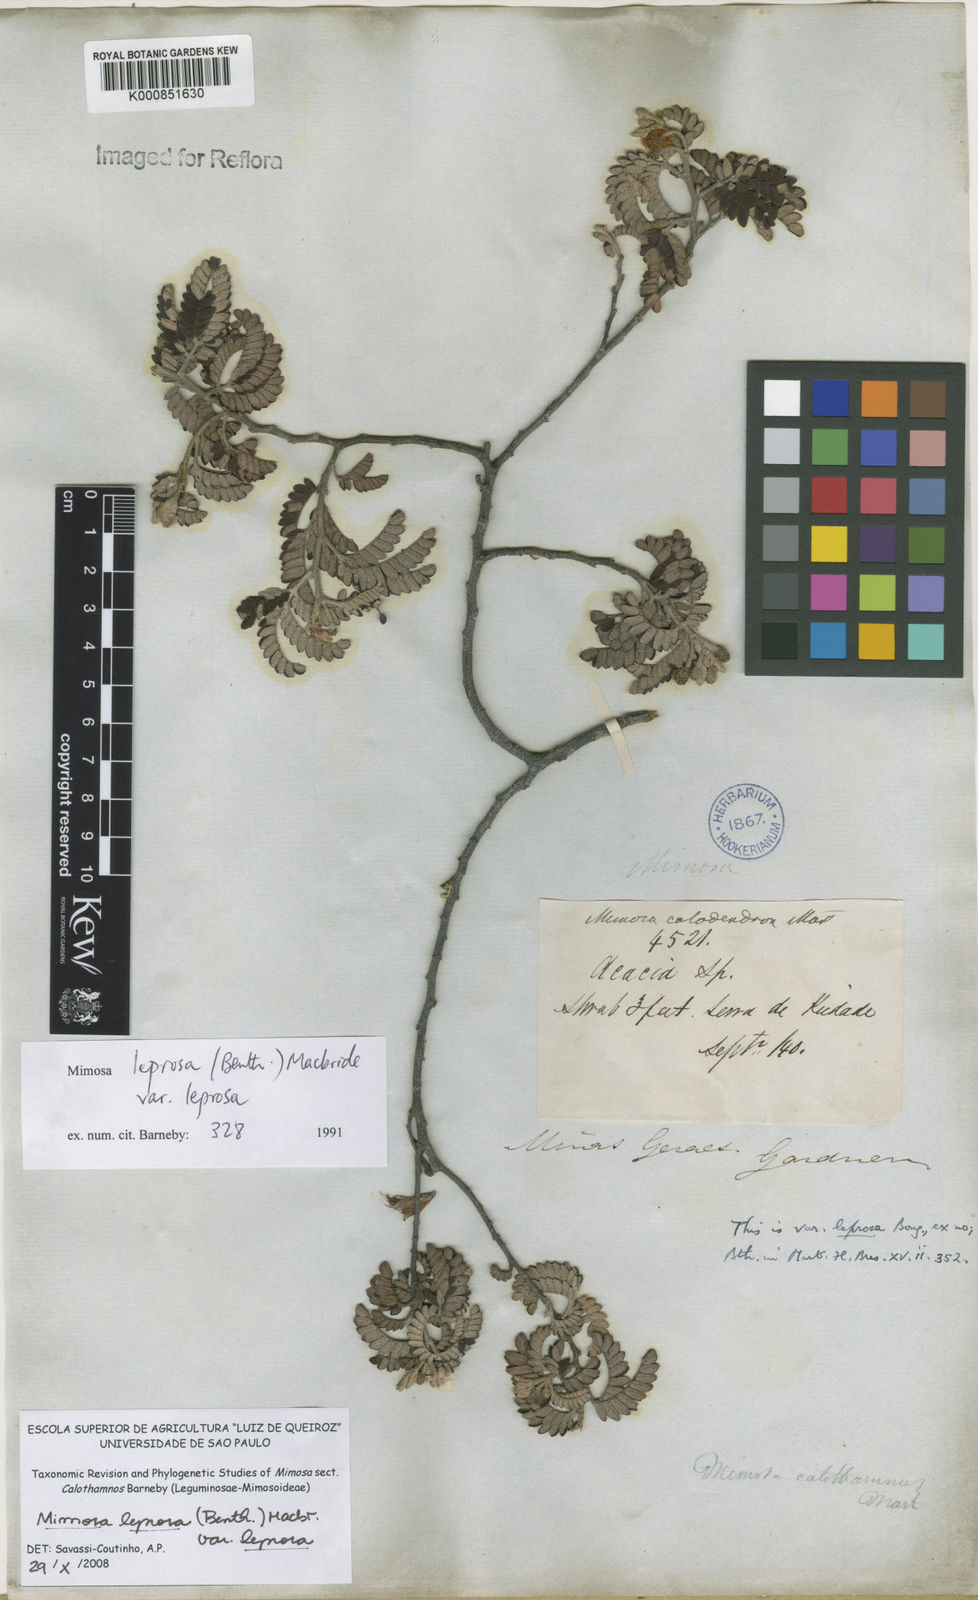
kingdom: Plantae
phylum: Tracheophyta
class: Magnoliopsida
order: Fabales
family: Fabaceae
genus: Mimosa
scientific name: Mimosa leprosa
